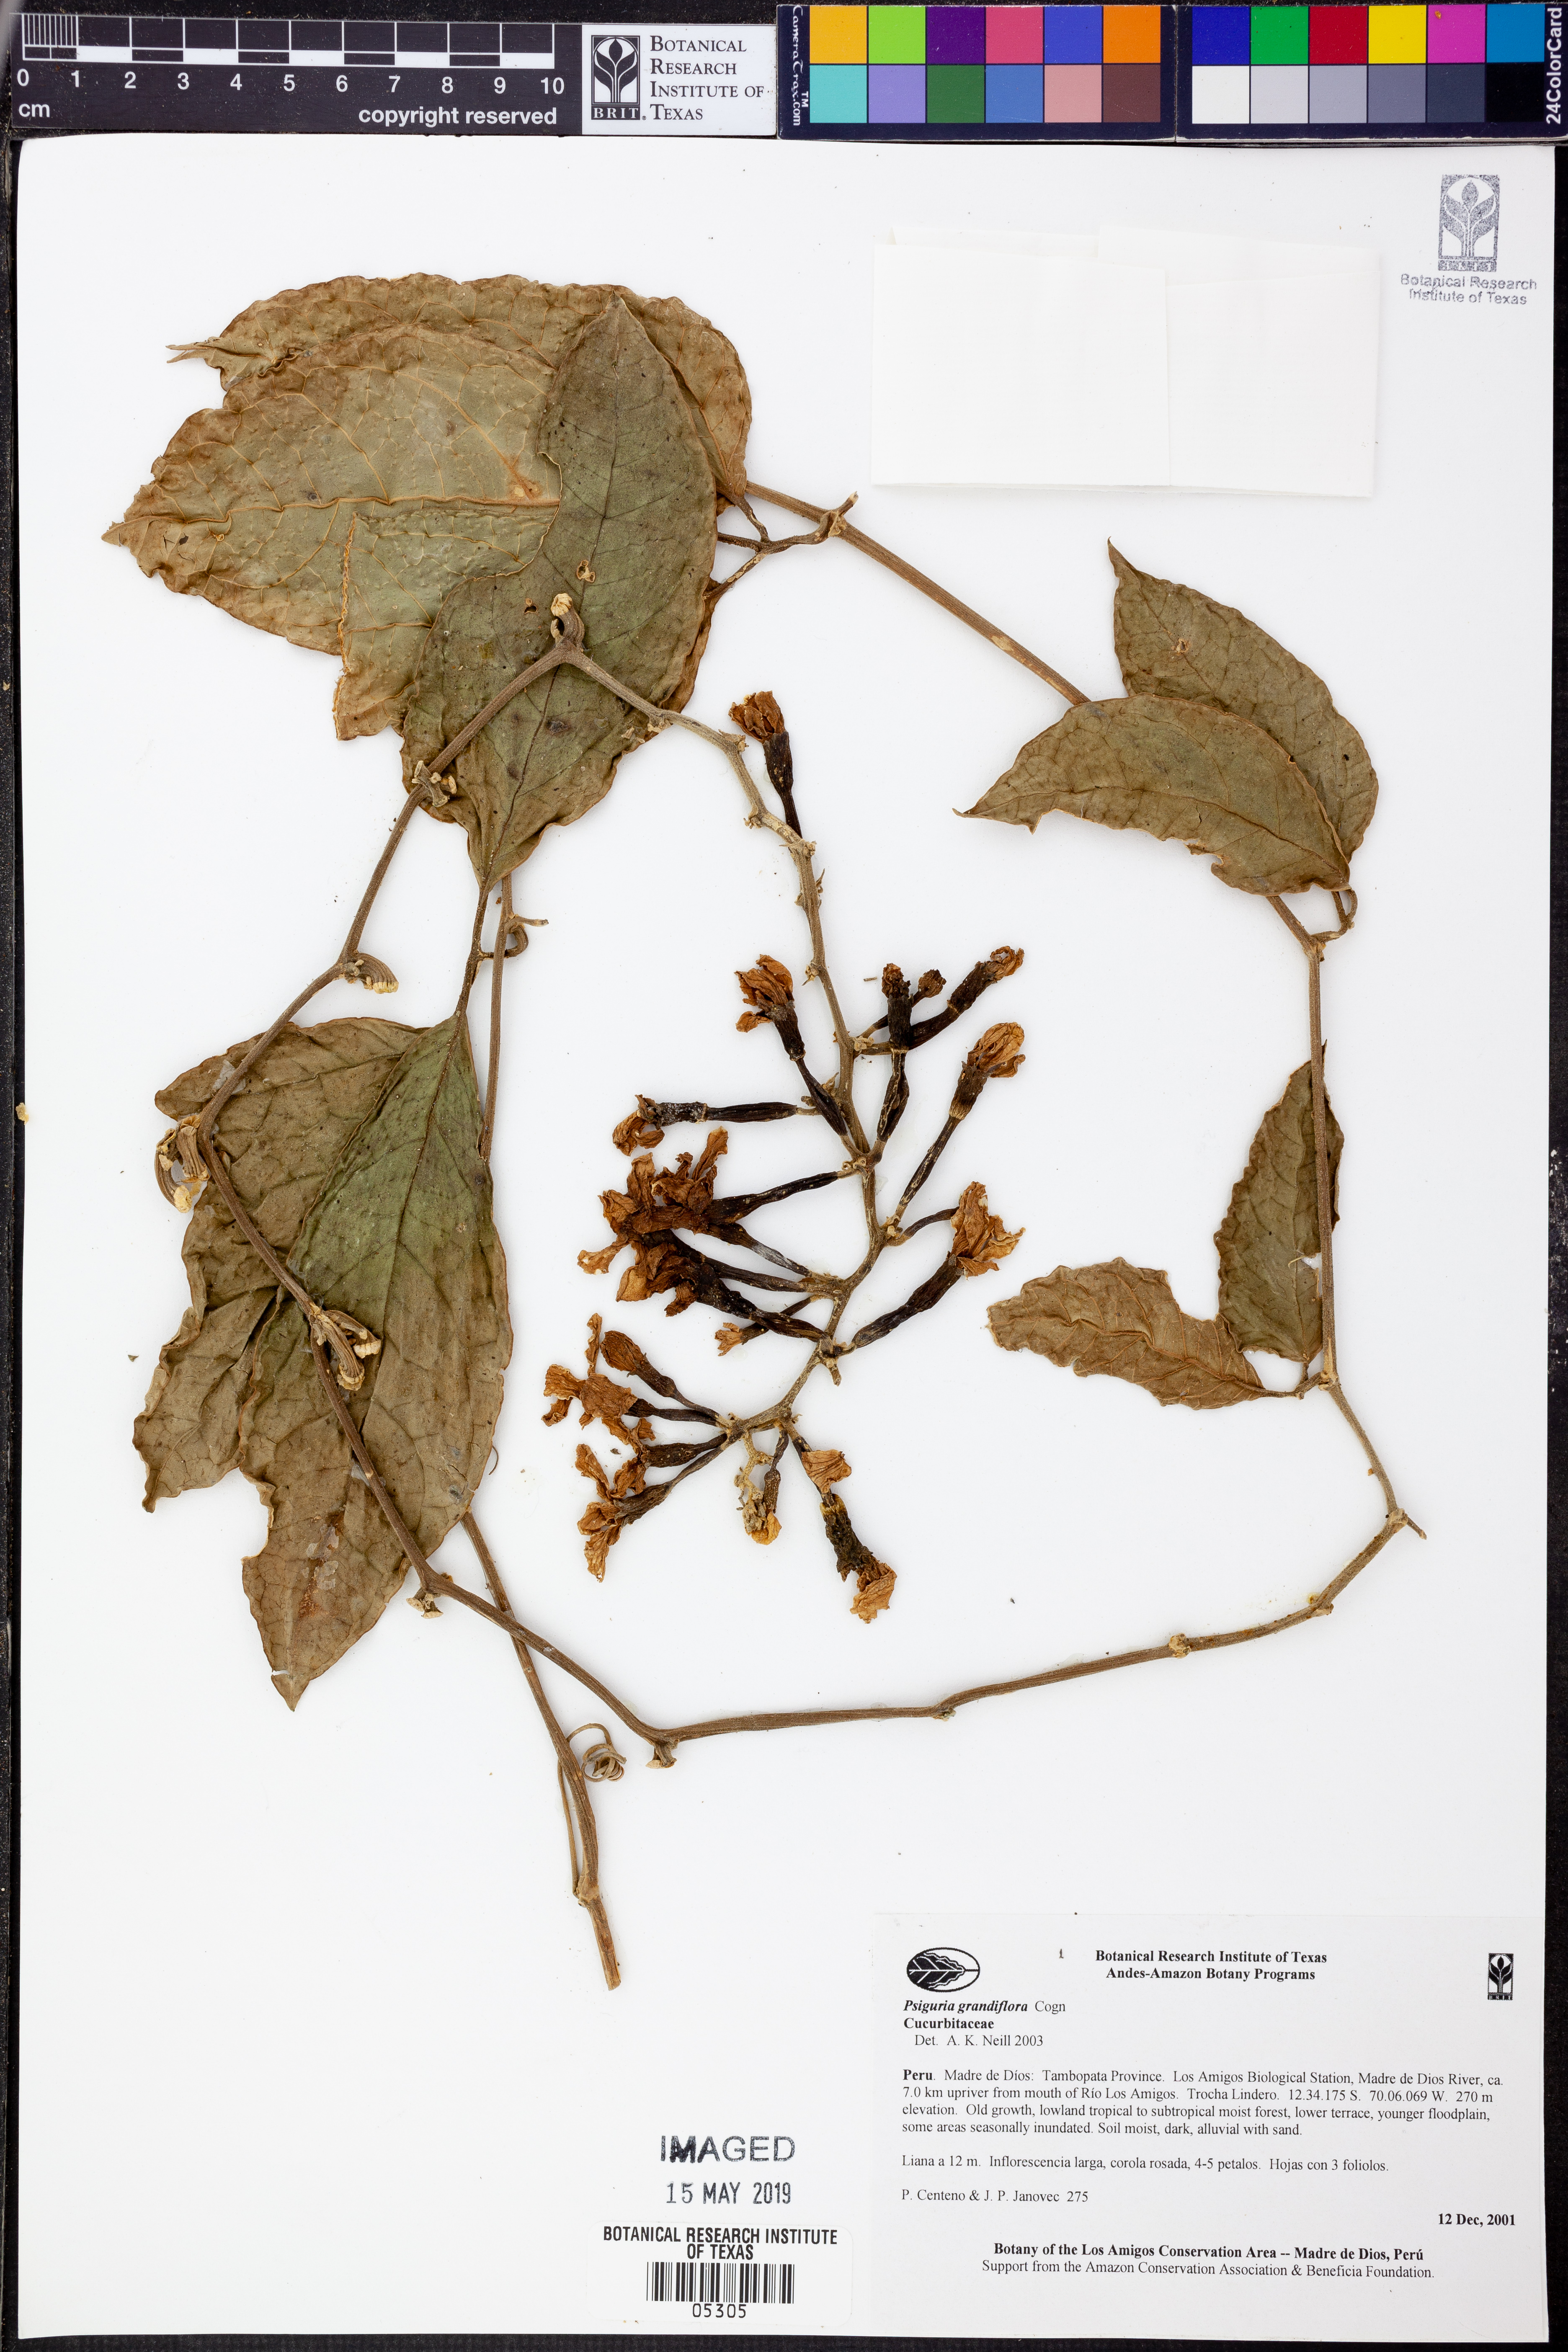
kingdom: Plantae
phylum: Tracheophyta
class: Magnoliopsida
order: Cucurbitales
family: Cucurbitaceae
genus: Psiguria
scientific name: Psiguria
